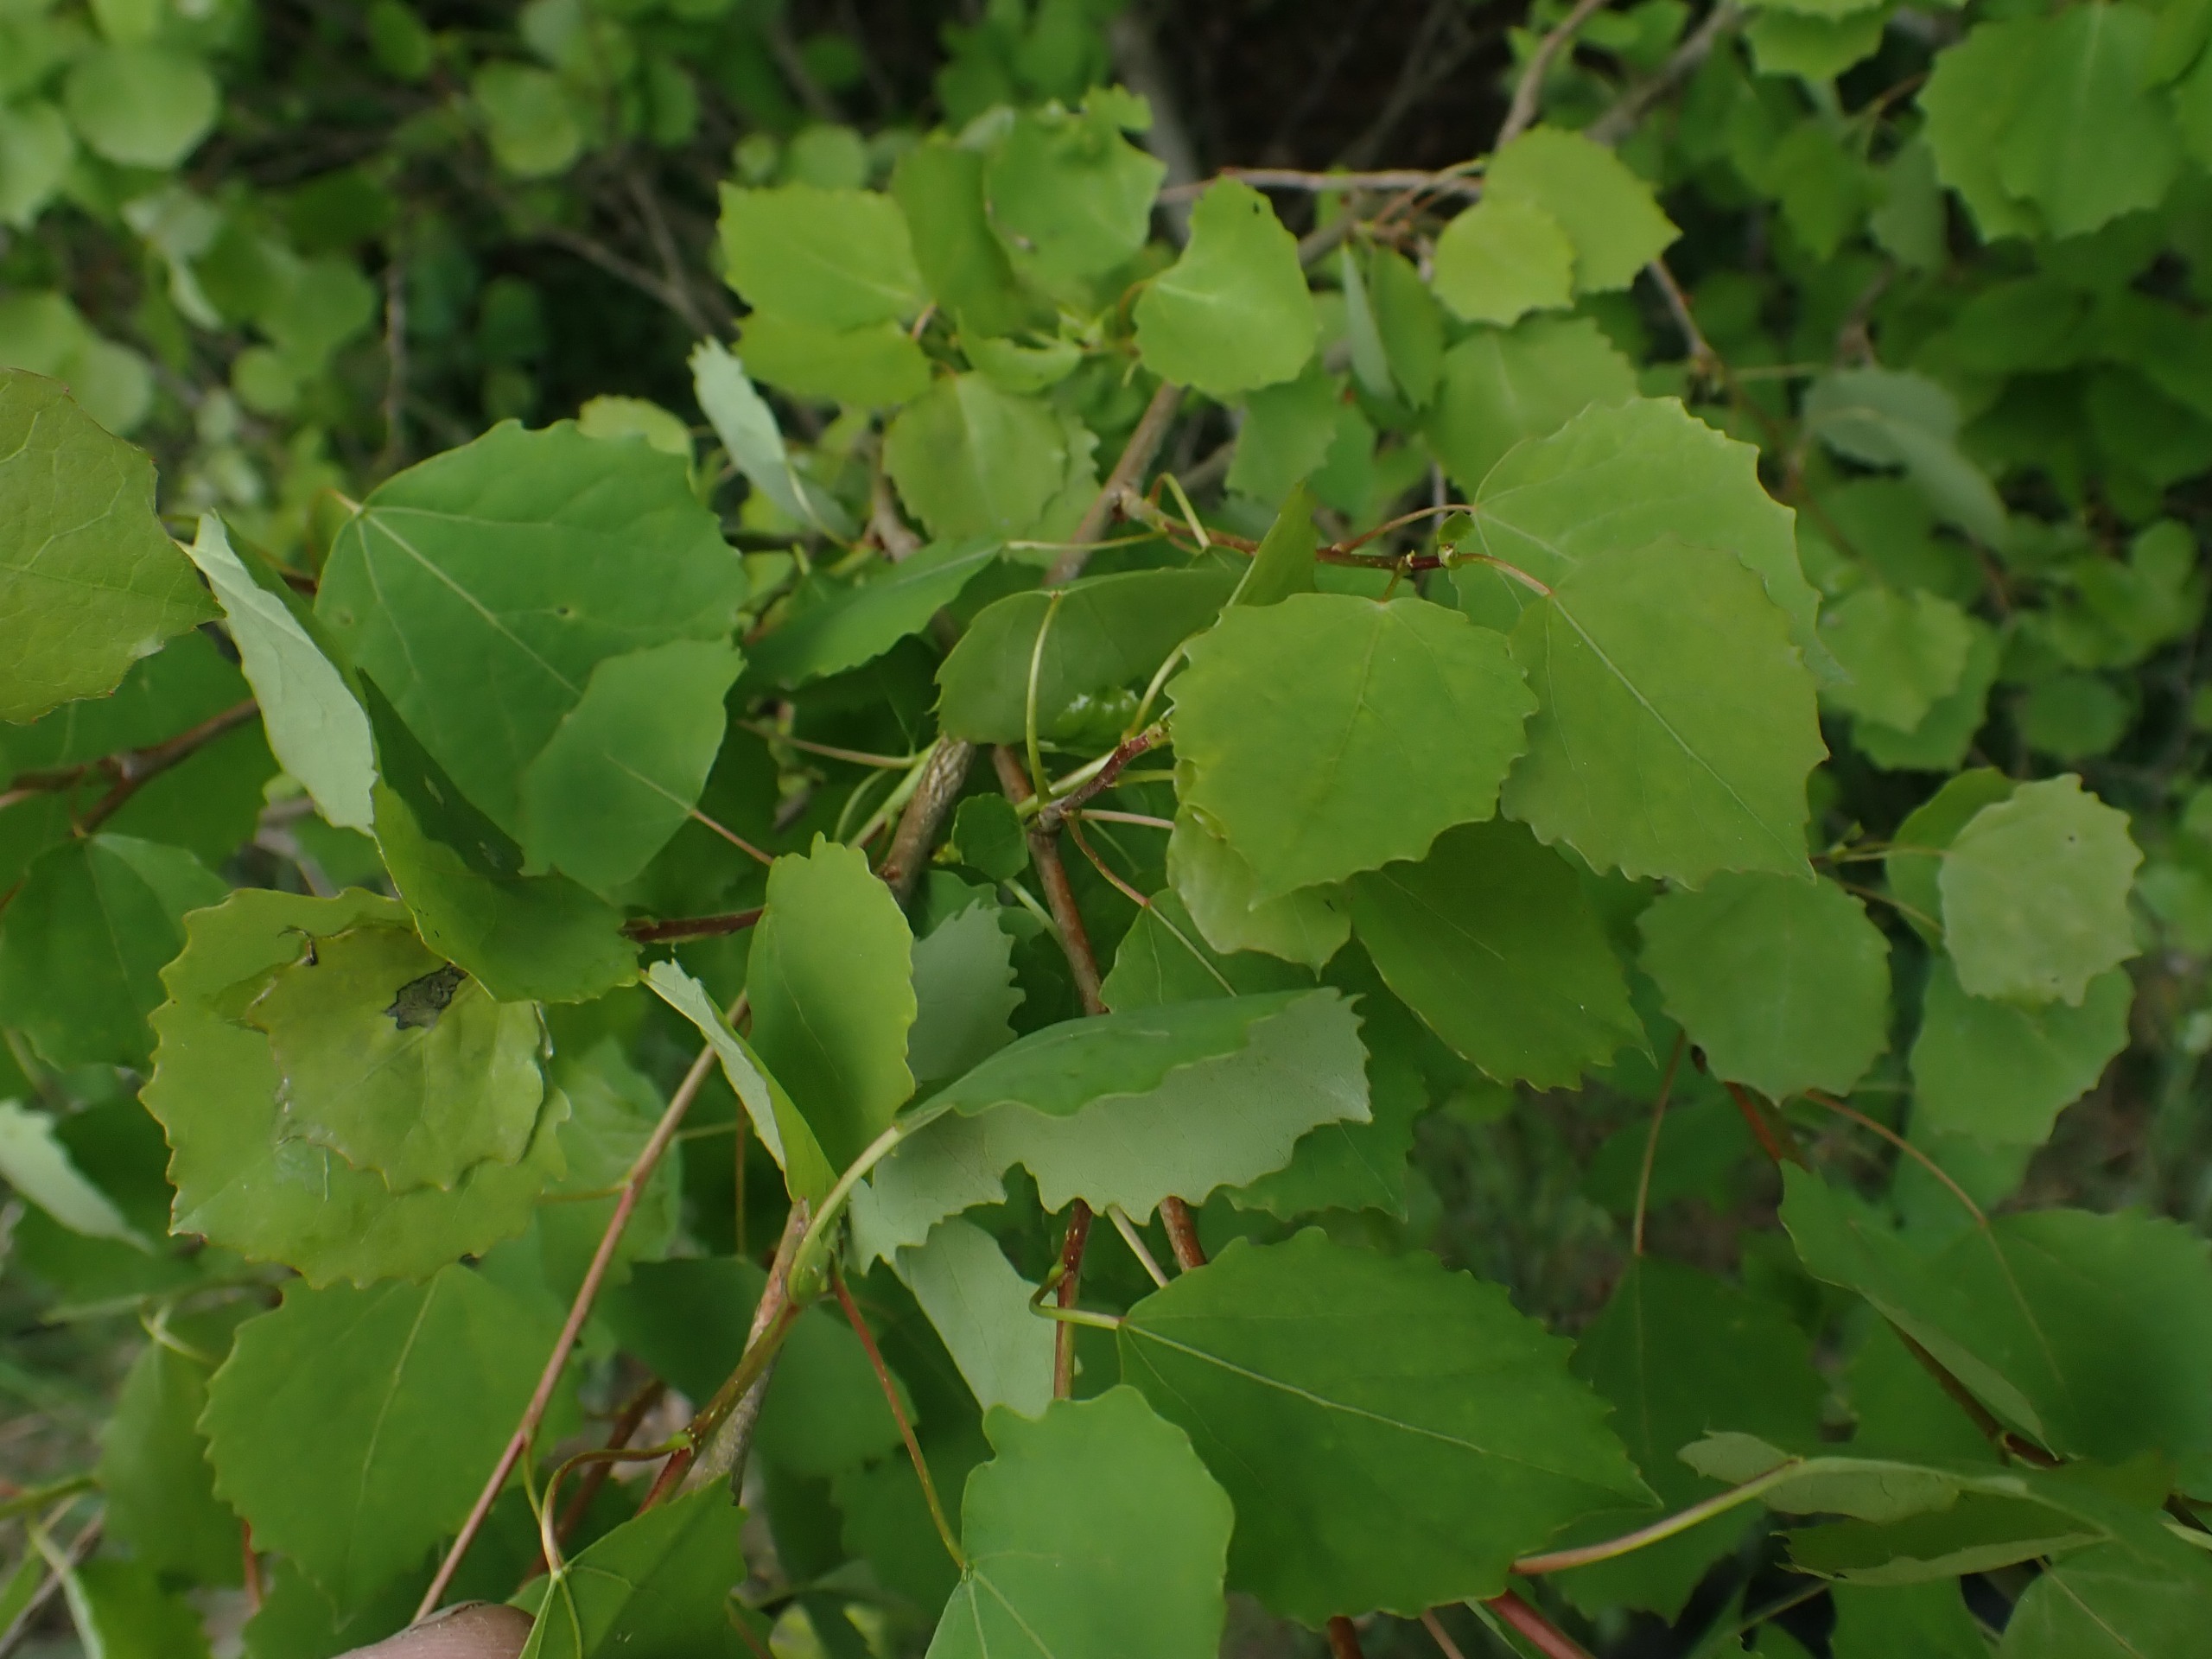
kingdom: Plantae
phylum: Tracheophyta
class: Magnoliopsida
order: Malpighiales
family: Salicaceae
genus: Populus
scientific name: Populus tremula
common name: Bævreasp
